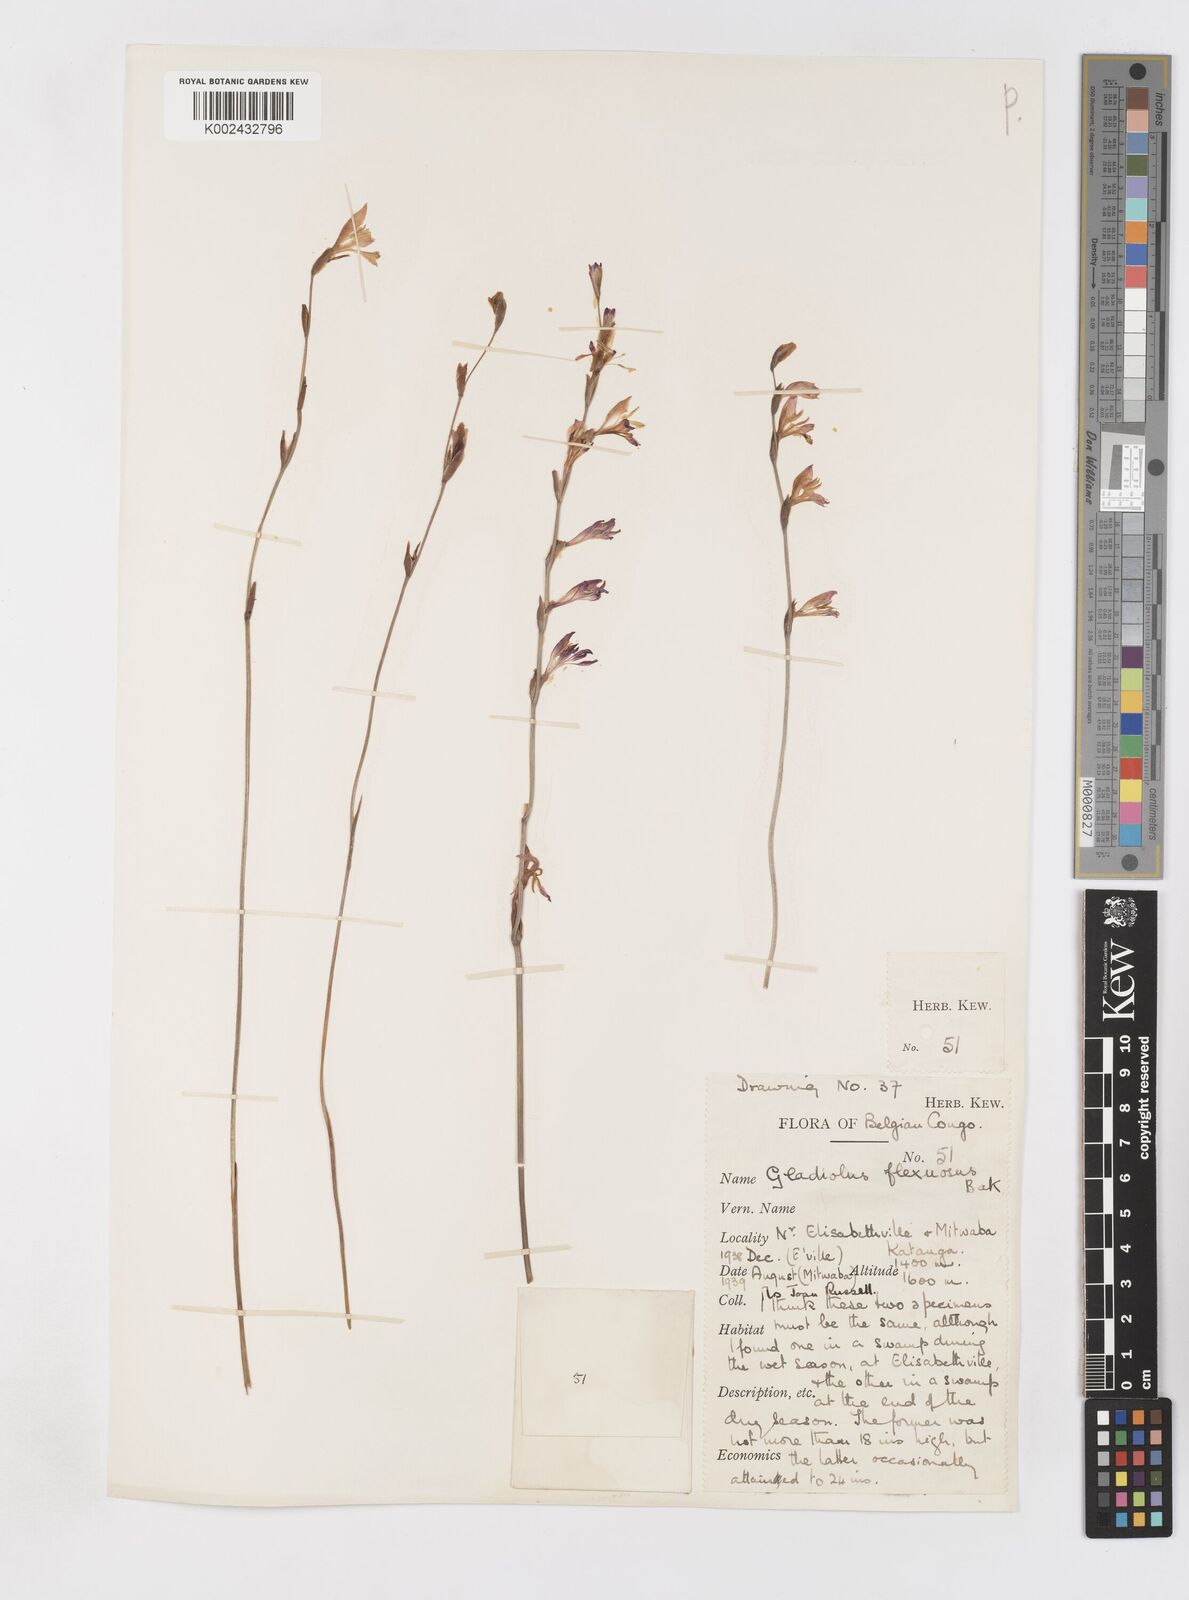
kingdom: Plantae
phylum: Tracheophyta
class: Liliopsida
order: Asparagales
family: Iridaceae
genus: Gladiolus
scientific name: Gladiolus atropurpureus
